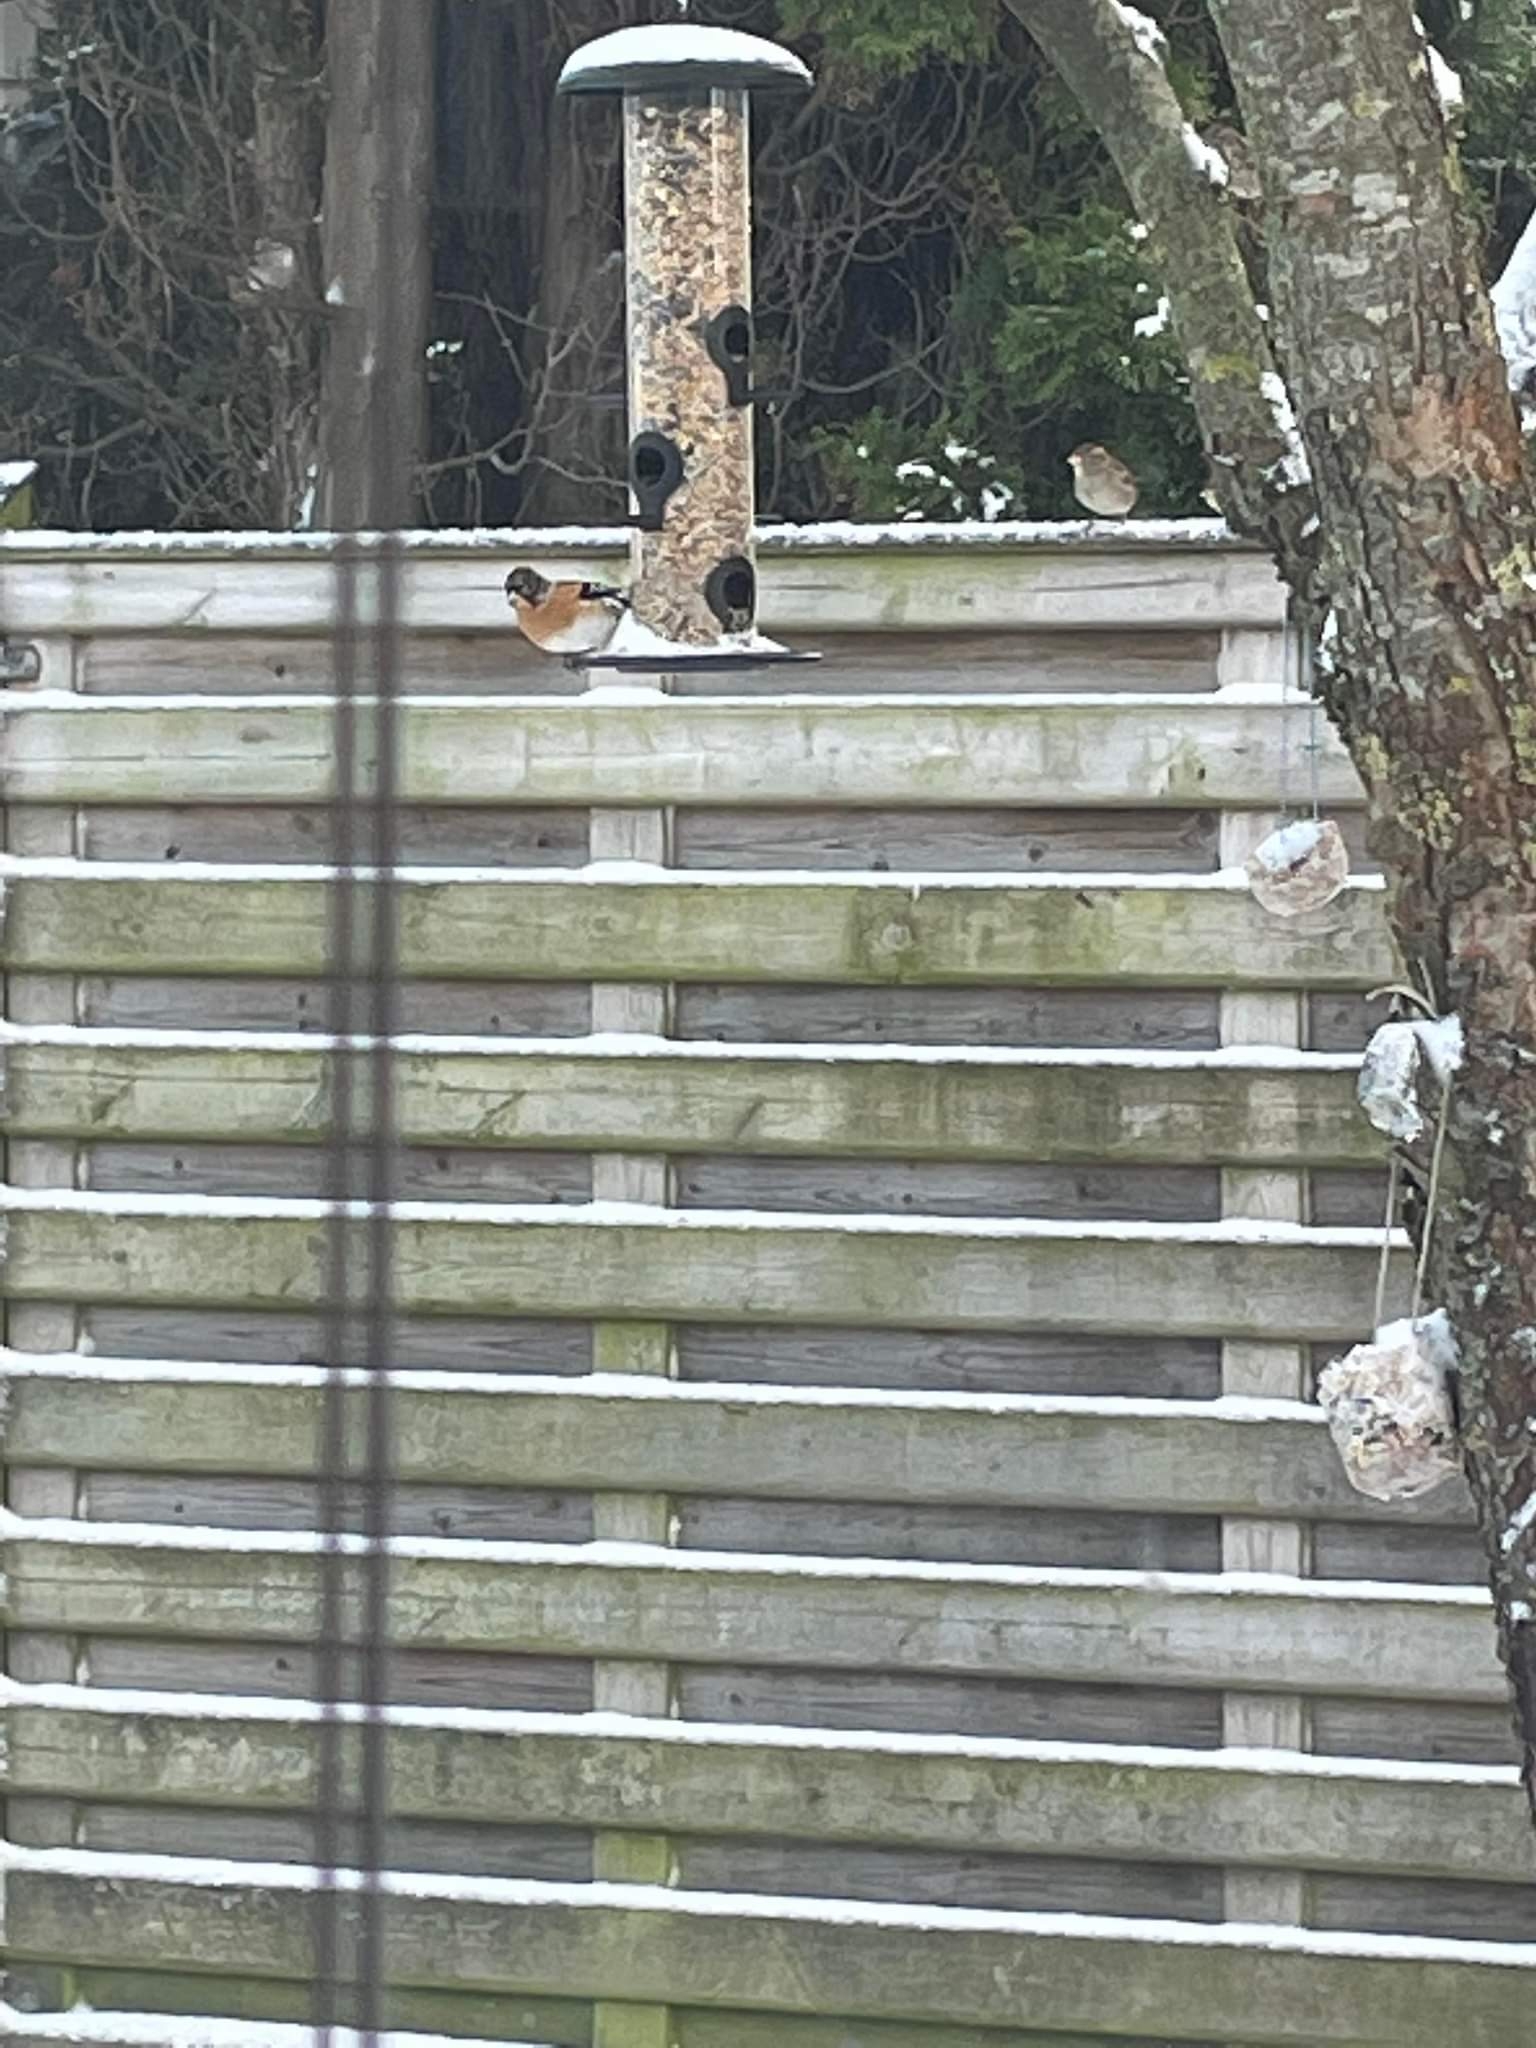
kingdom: Animalia
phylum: Chordata
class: Aves
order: Passeriformes
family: Fringillidae
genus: Fringilla
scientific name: Fringilla montifringilla
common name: Kvækerfinke
